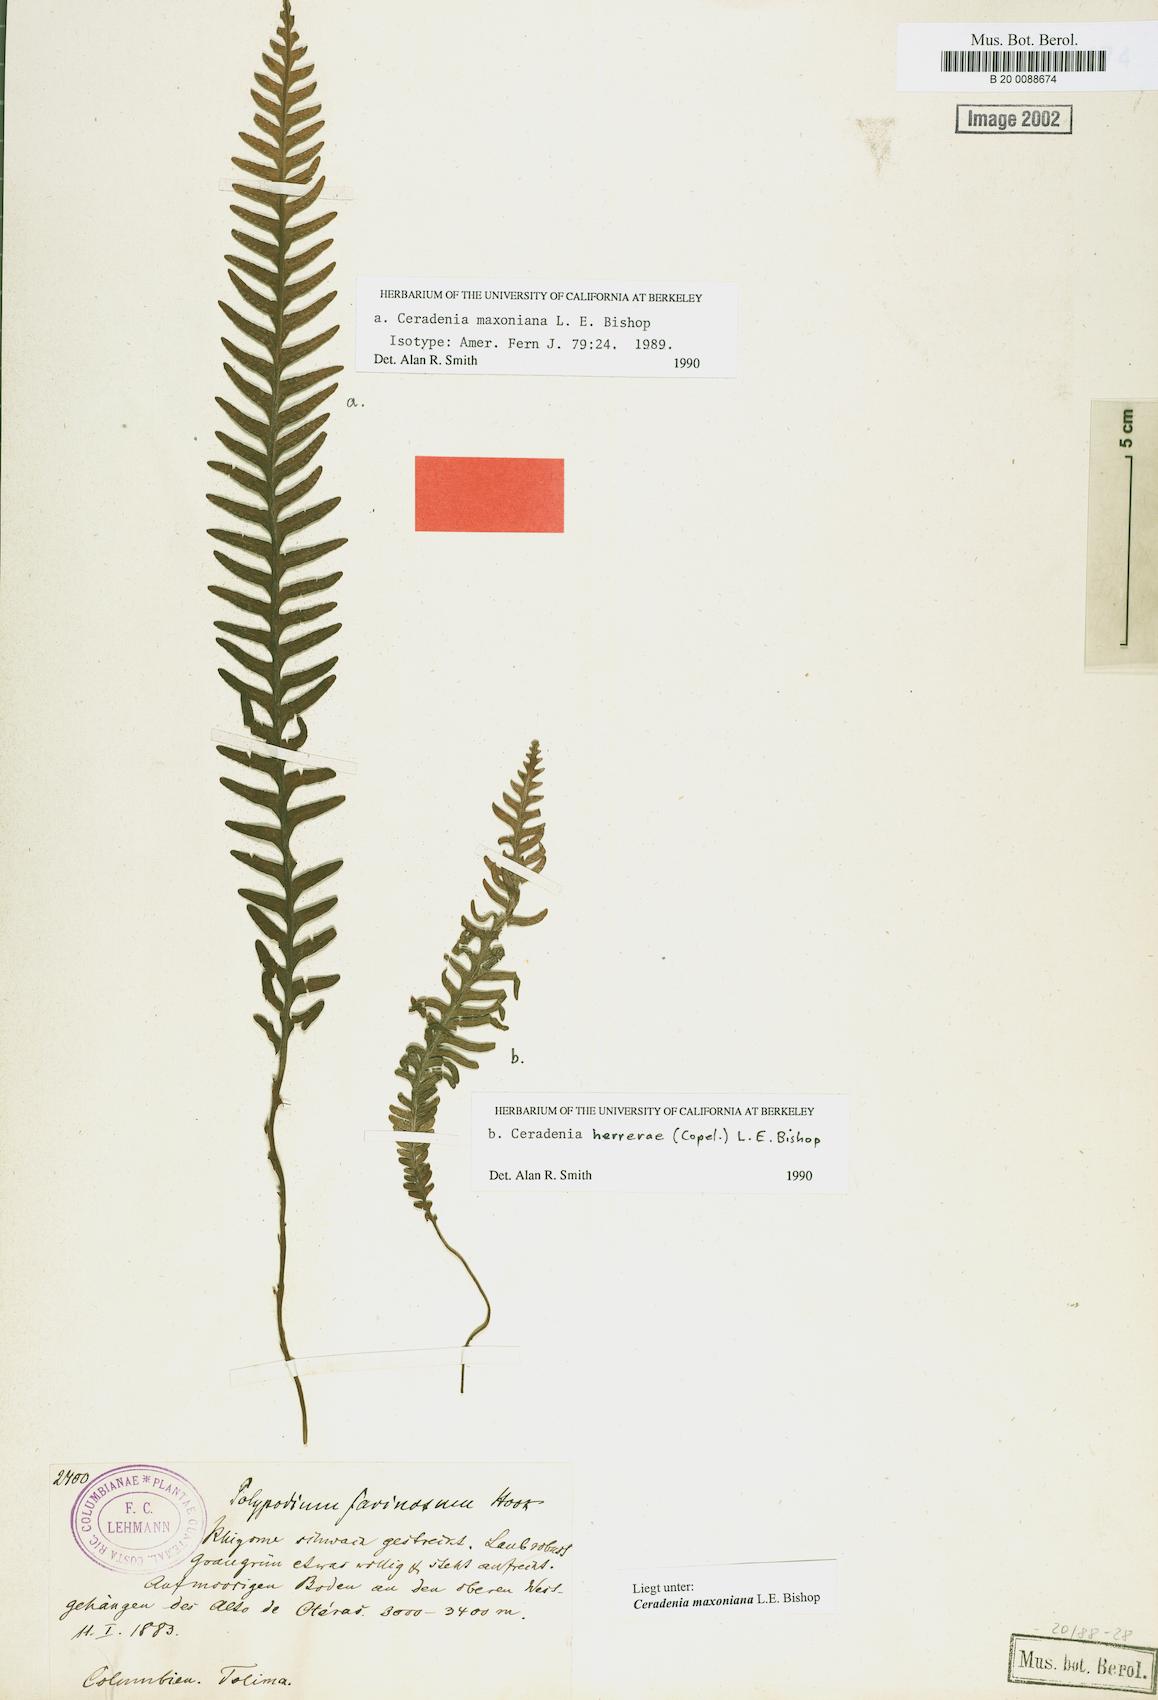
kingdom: Plantae
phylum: Tracheophyta
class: Polypodiopsida
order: Polypodiales
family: Polypodiaceae
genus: Ceradenia
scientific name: Ceradenia maxoniana
